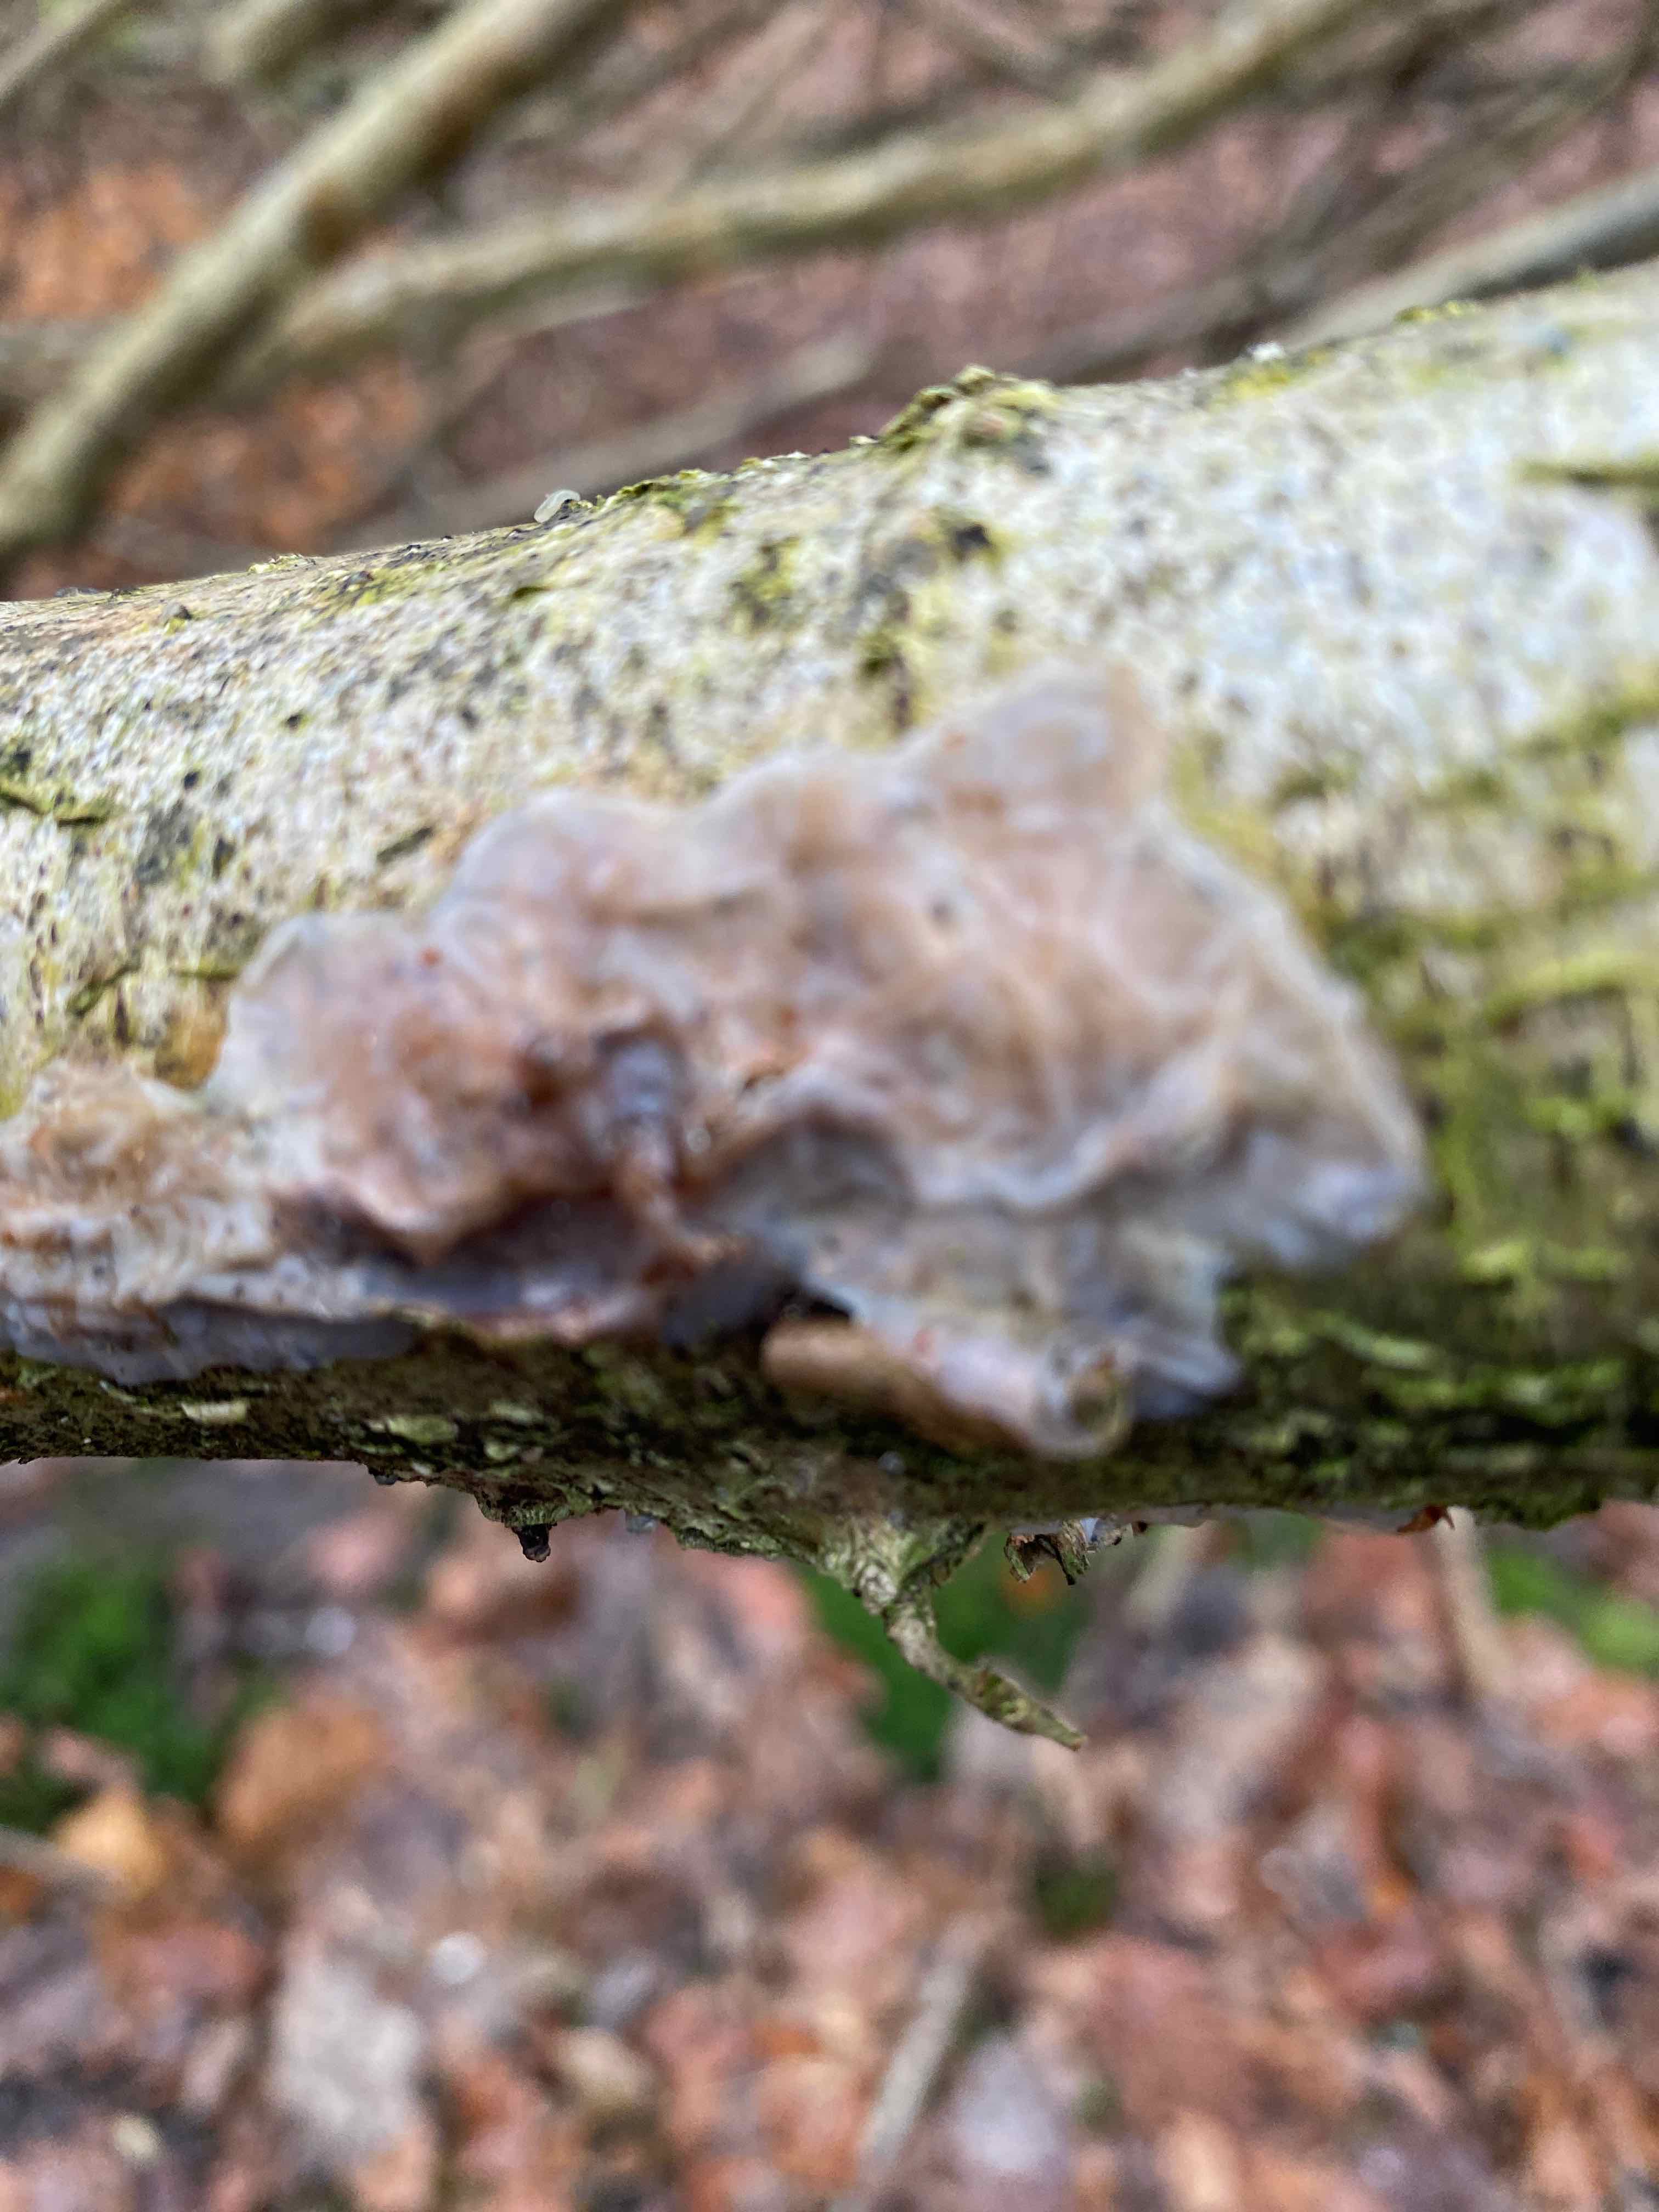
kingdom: Fungi
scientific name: Fungi
